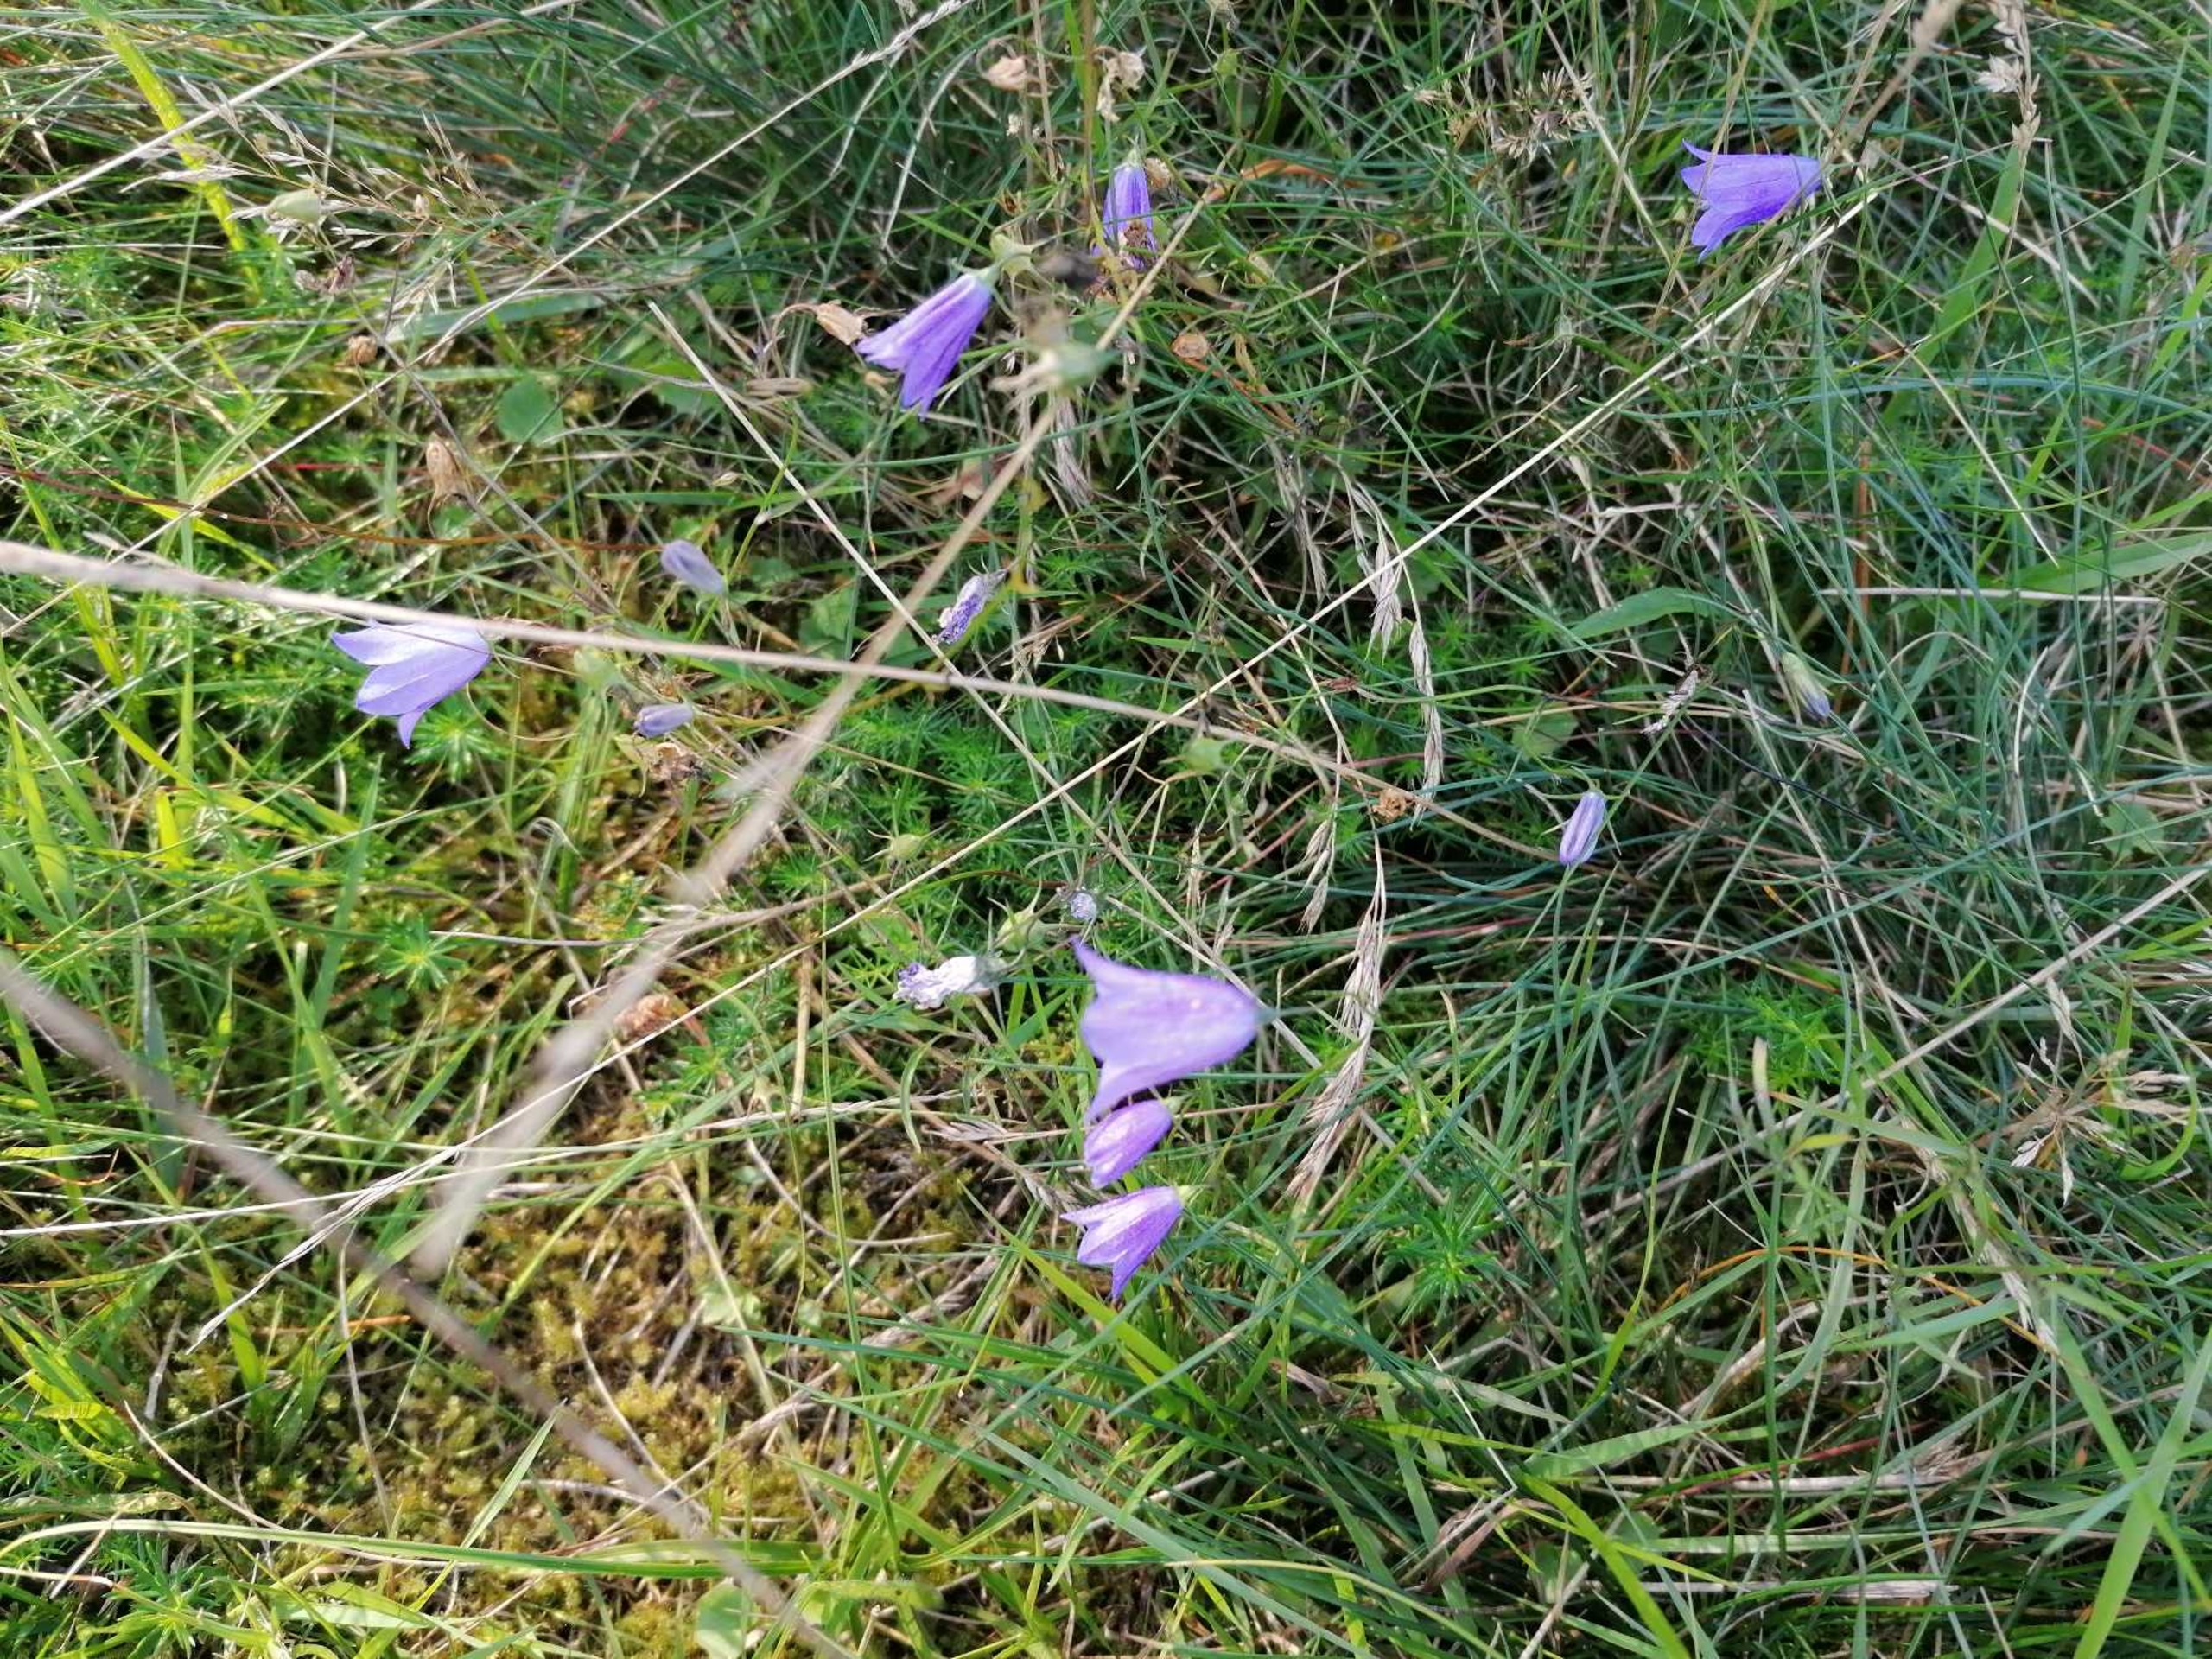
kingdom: Plantae
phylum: Tracheophyta
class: Magnoliopsida
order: Asterales
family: Campanulaceae
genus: Campanula
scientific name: Campanula rotundifolia
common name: Liden klokke
